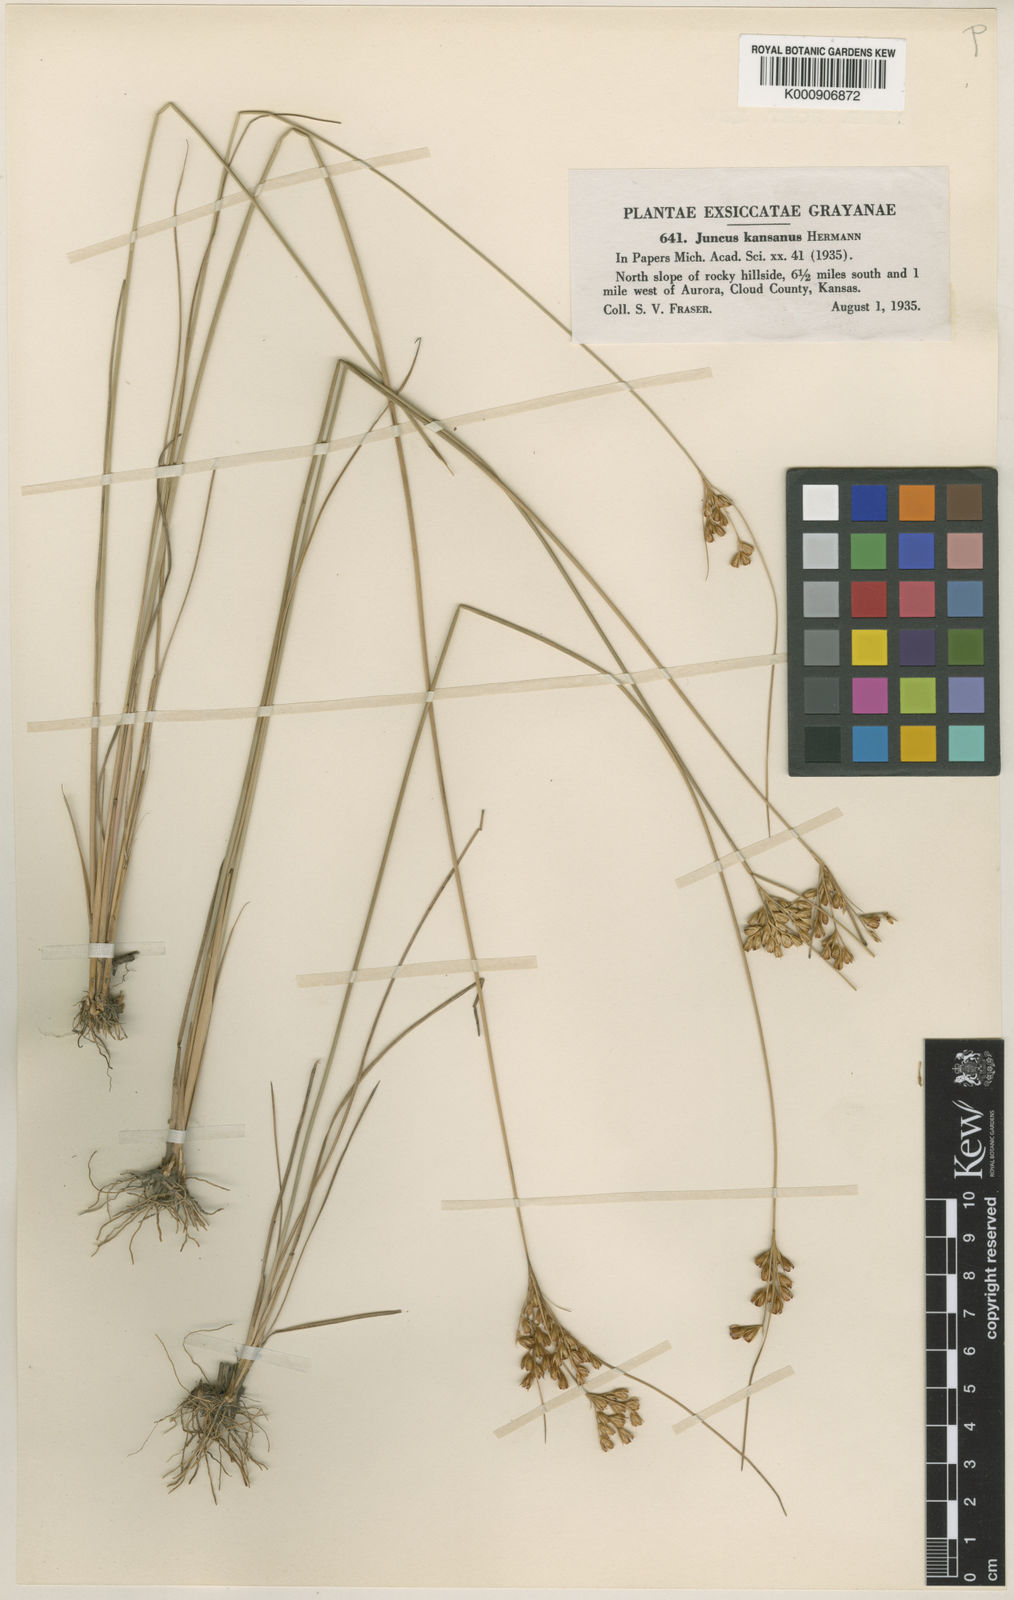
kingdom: Plantae
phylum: Tracheophyta
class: Liliopsida
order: Poales
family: Juncaceae
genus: Juncus
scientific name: Juncus brachyphyllus
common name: Tufted-stem rush
